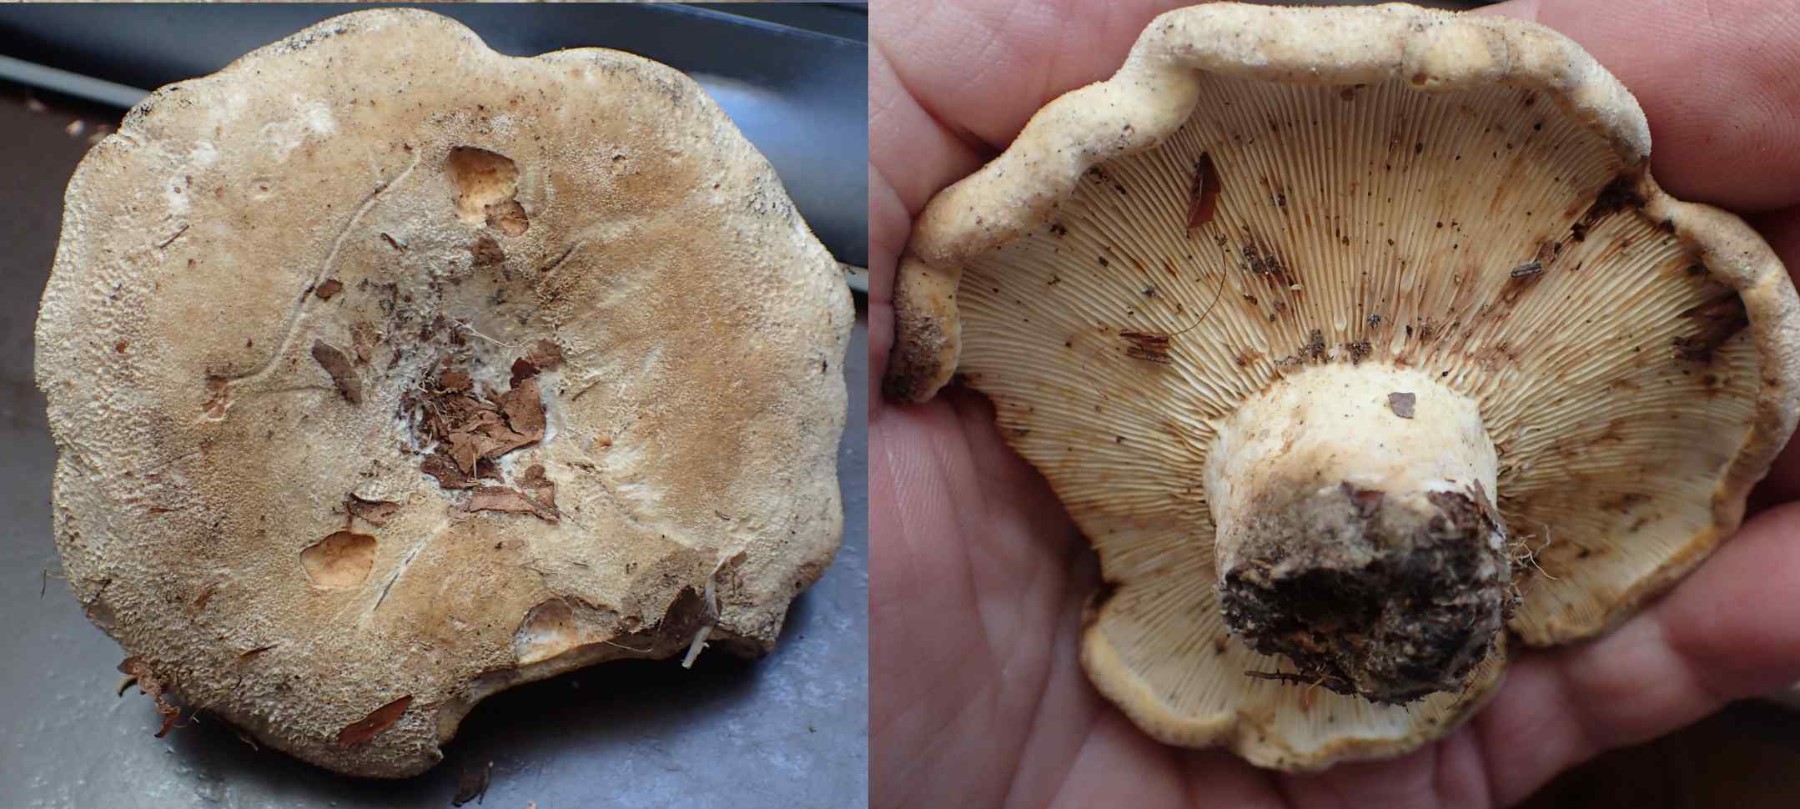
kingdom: Fungi
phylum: Basidiomycota
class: Agaricomycetes
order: Russulales
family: Russulaceae
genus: Lactifluus
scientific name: Lactifluus vellereus
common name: hvidfiltet mælkehat
